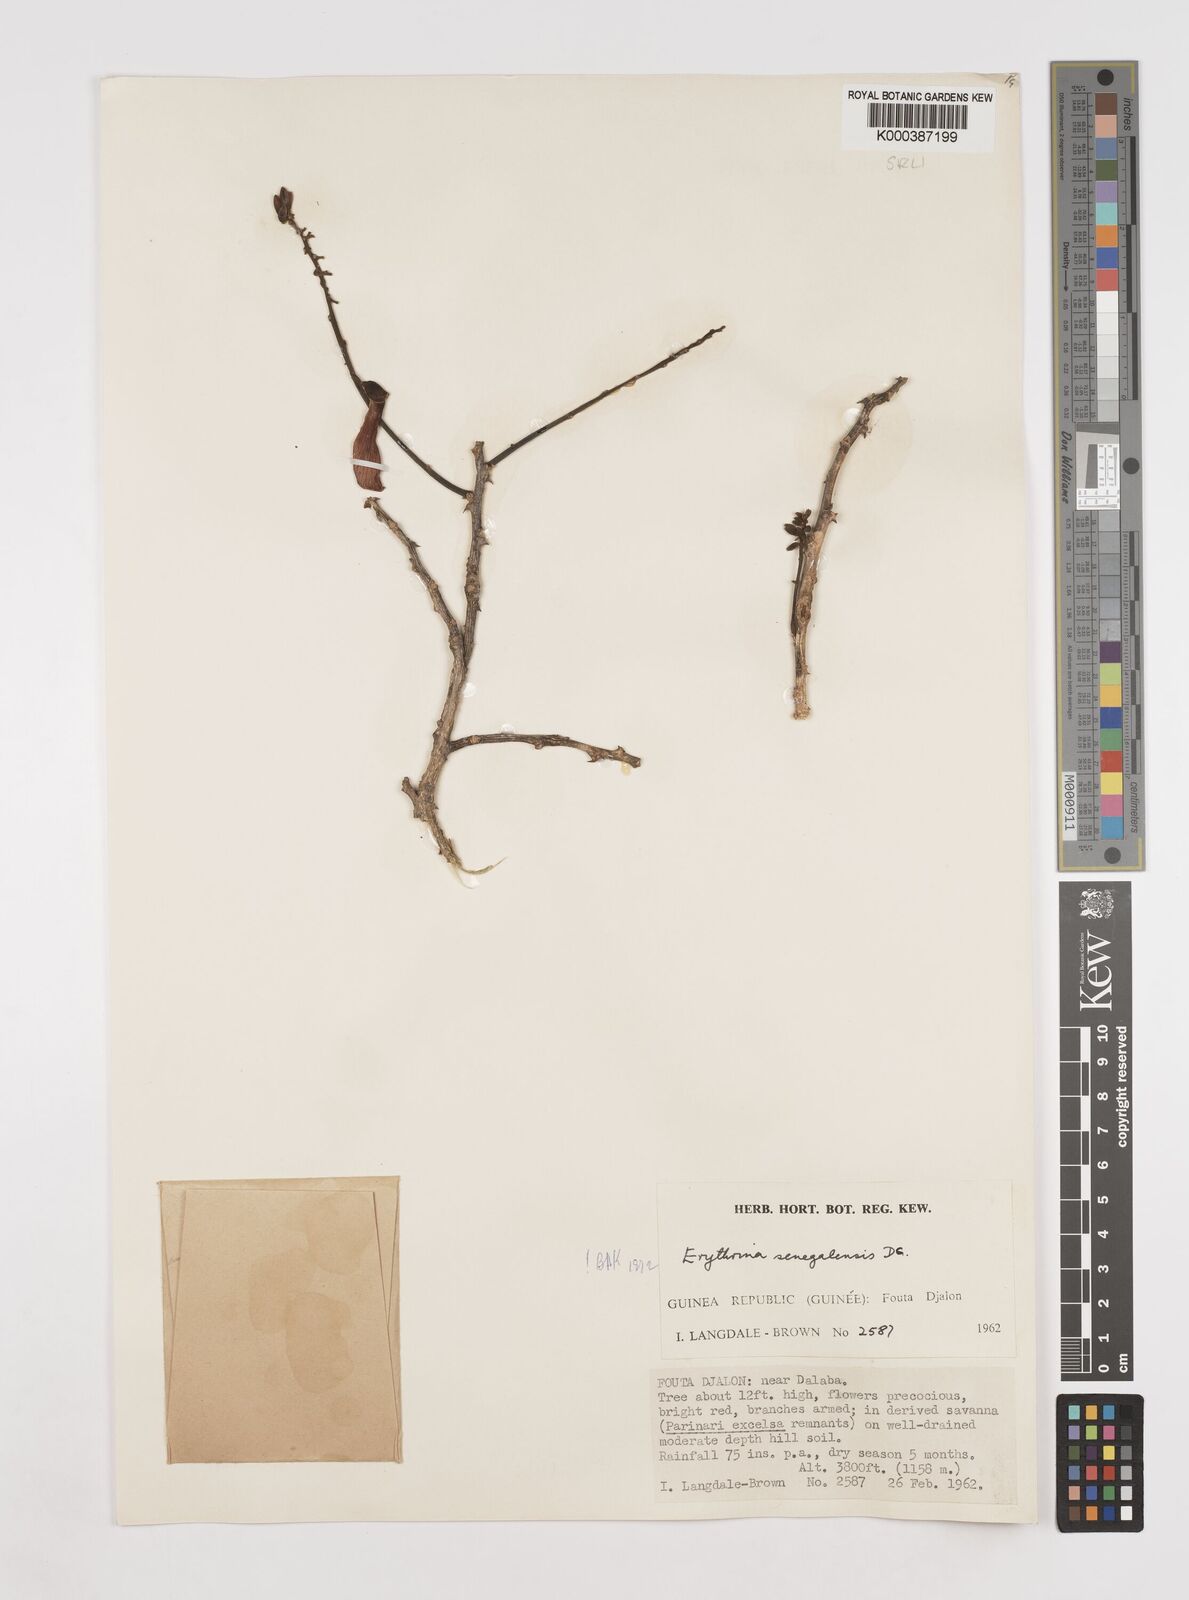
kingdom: Plantae
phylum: Tracheophyta
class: Magnoliopsida
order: Fabales
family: Fabaceae
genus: Erythrina
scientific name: Erythrina senegalensis
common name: Senegal coraltree
